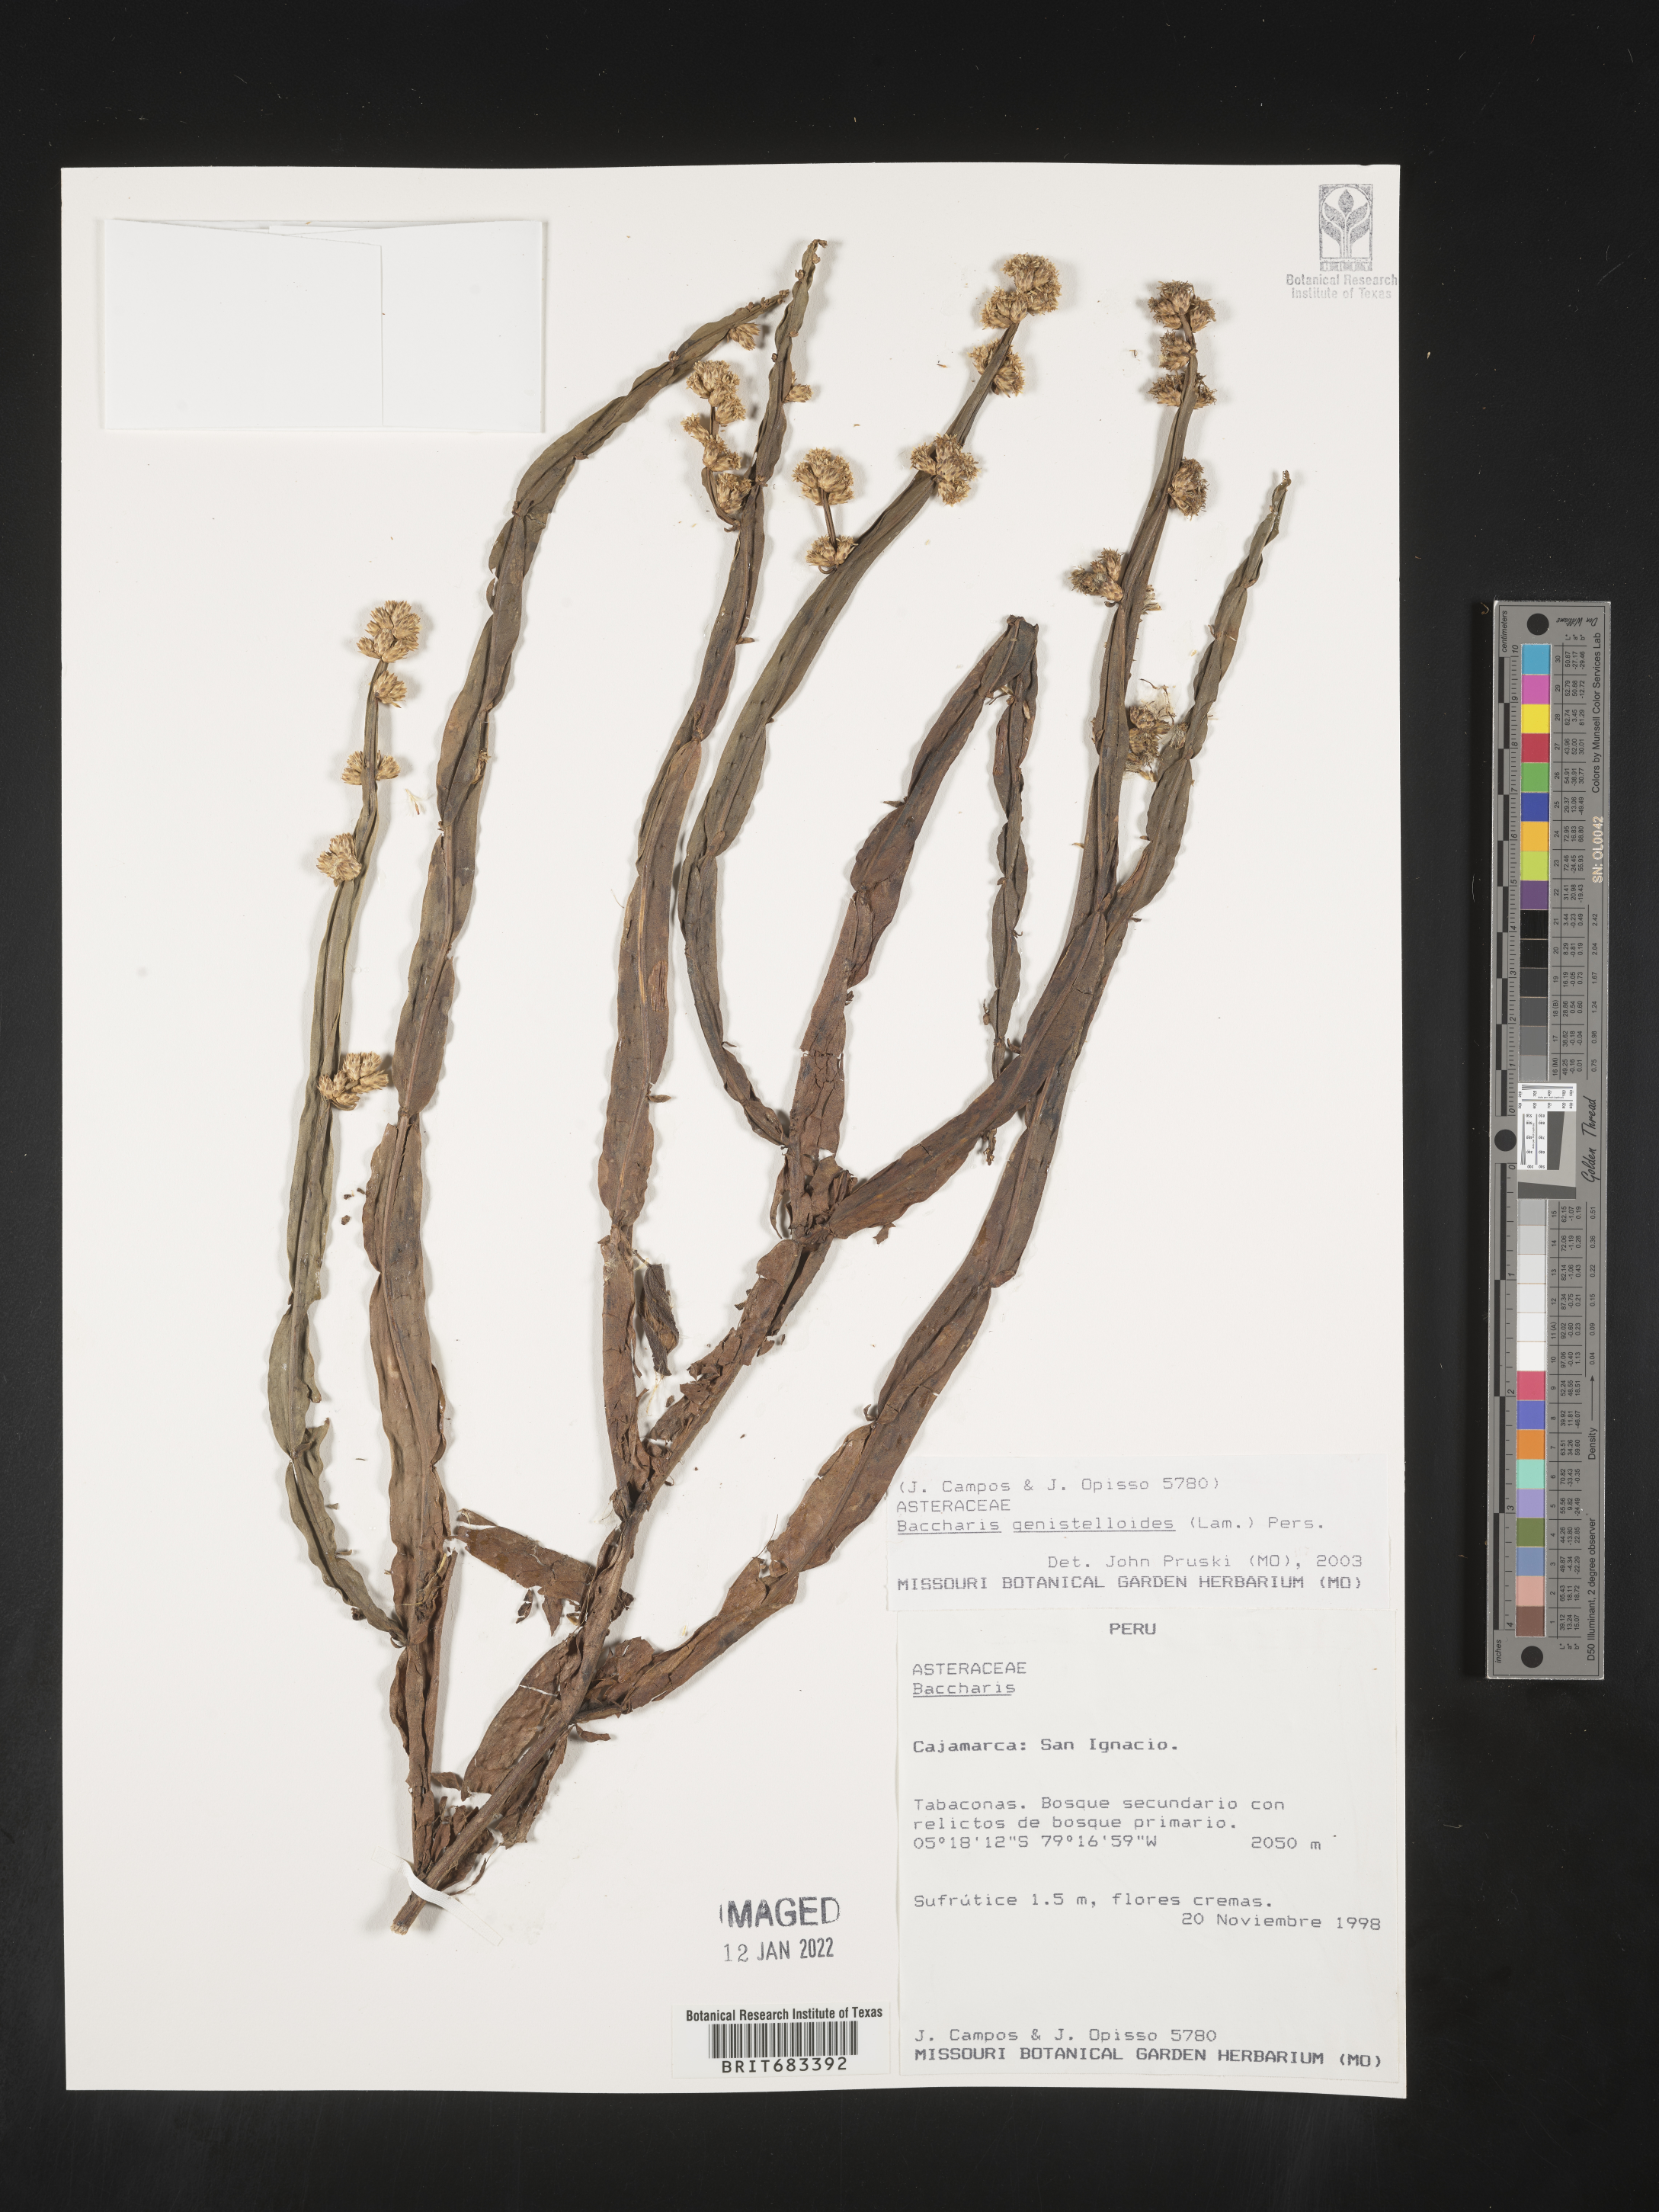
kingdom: Plantae
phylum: Tracheophyta
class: Magnoliopsida
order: Asterales
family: Asteraceae
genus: Baccharis
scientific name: Baccharis
